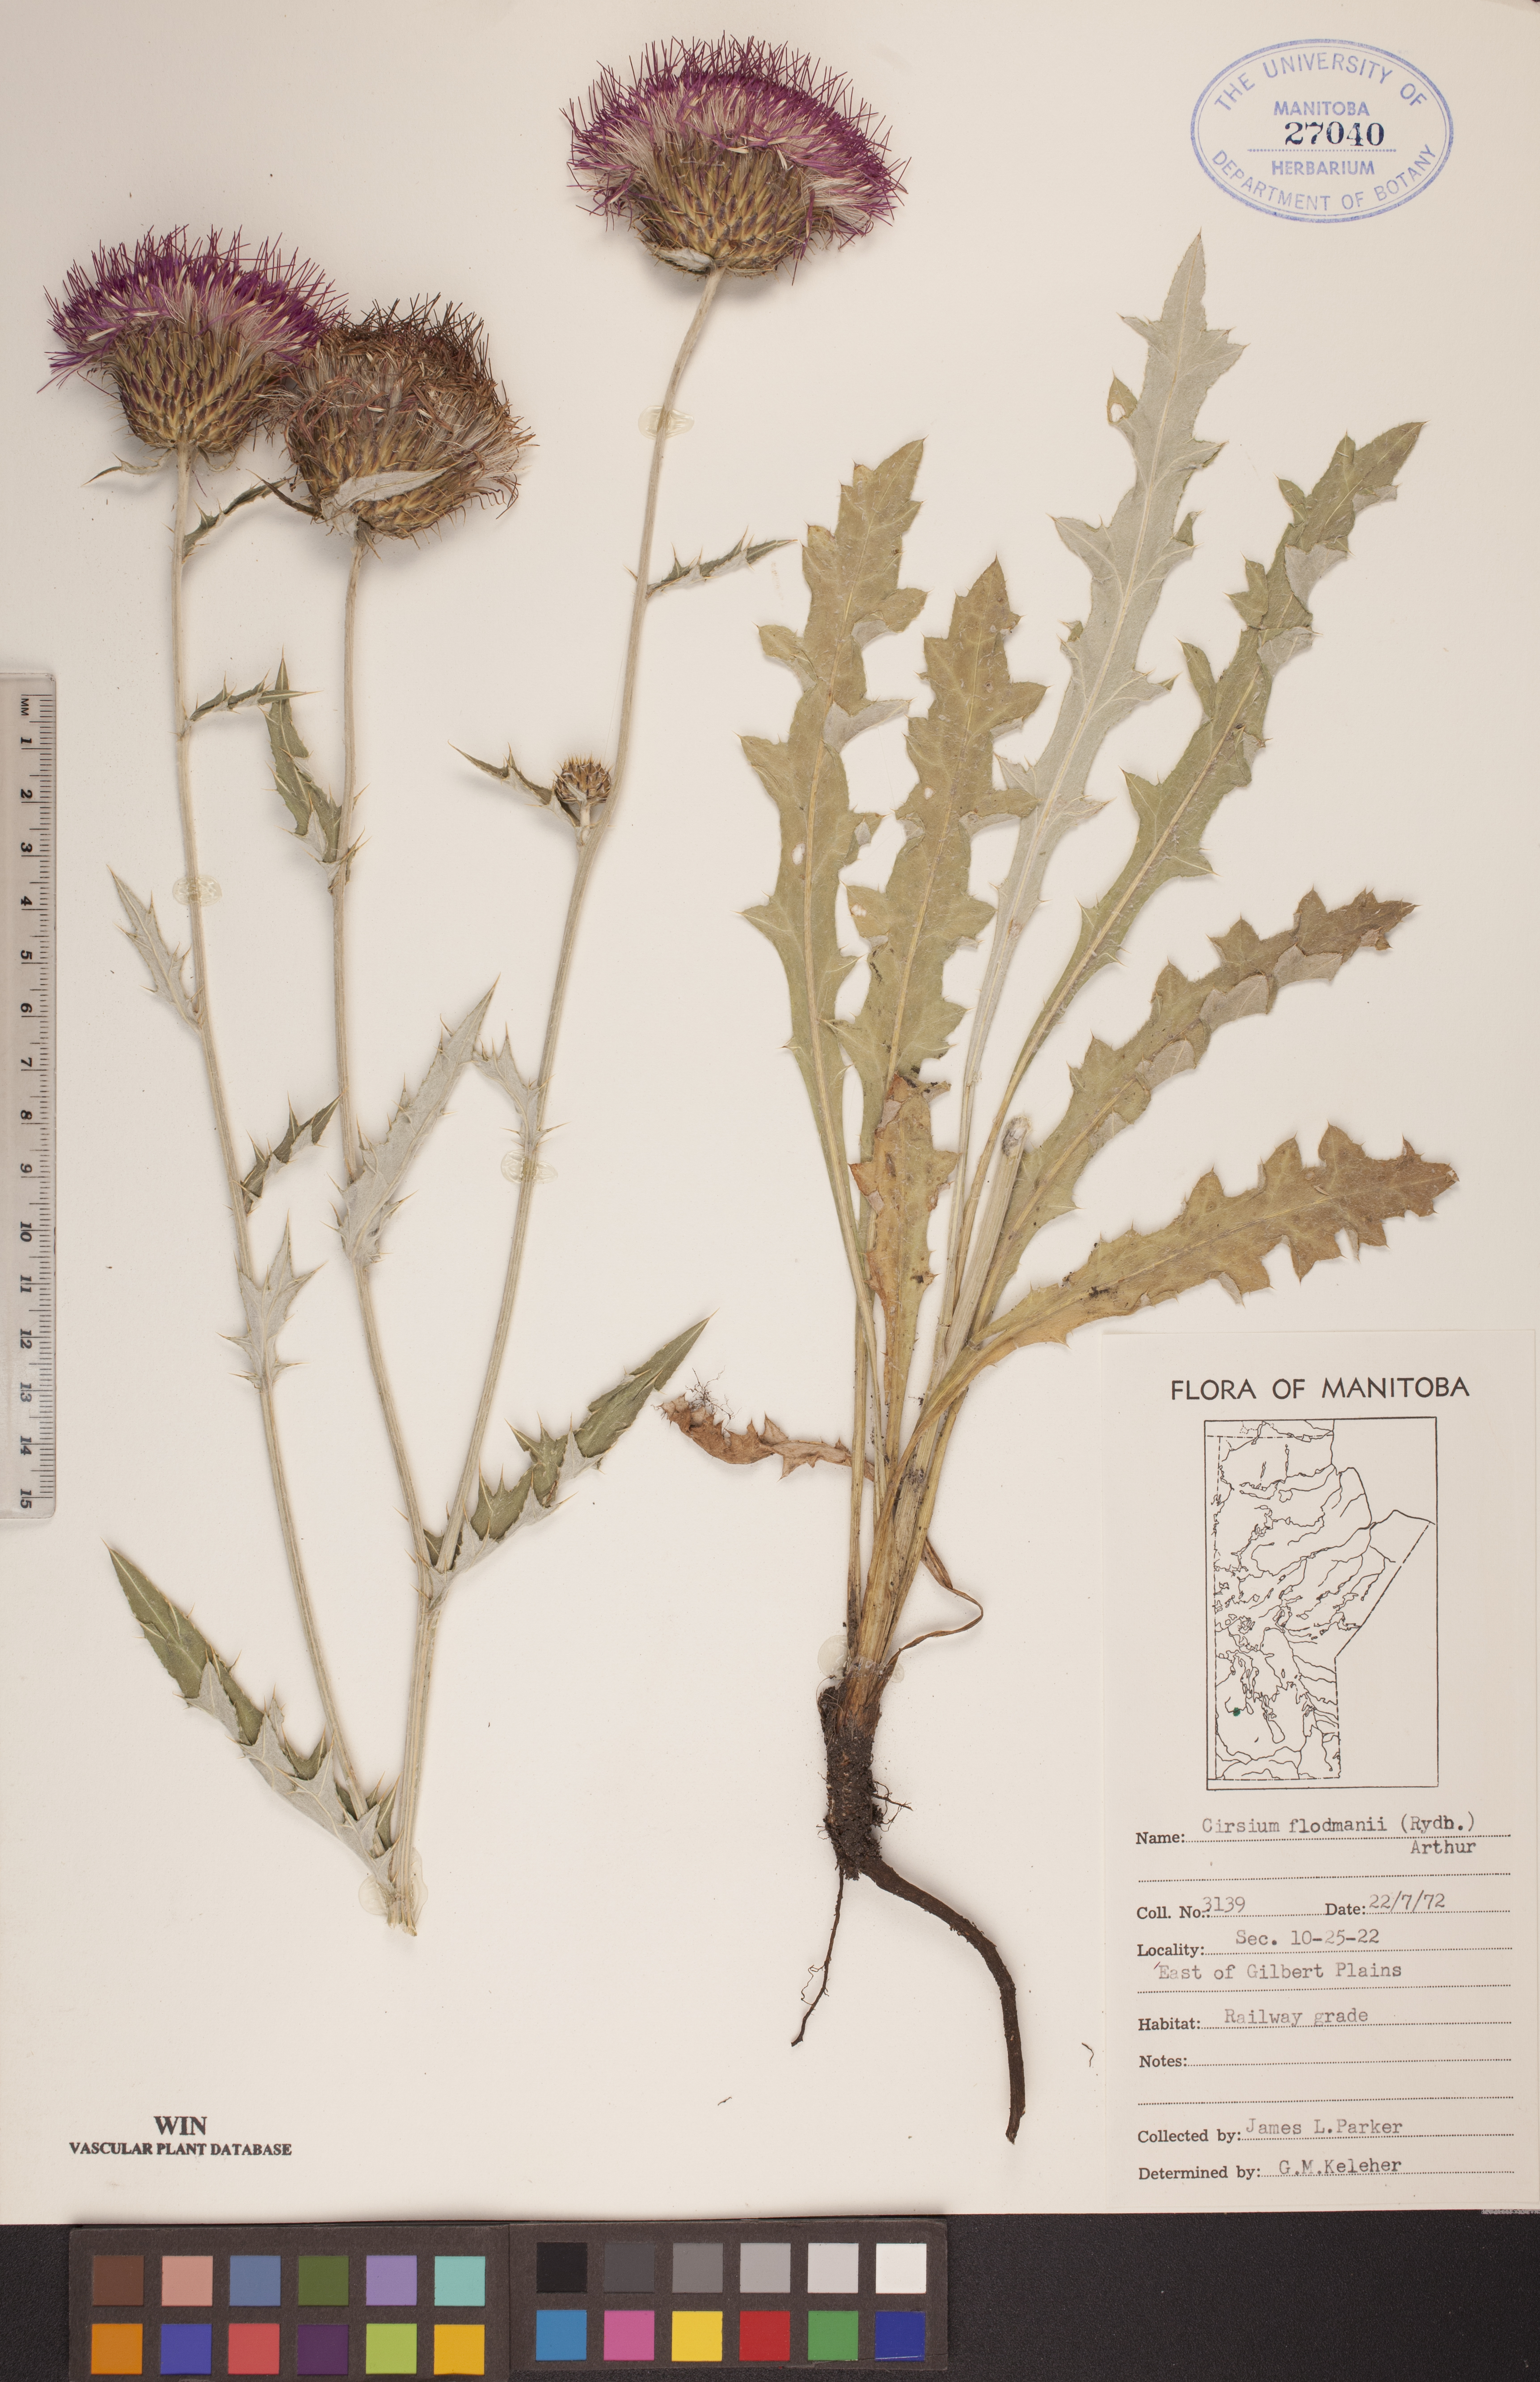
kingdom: Plantae
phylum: Tracheophyta
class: Magnoliopsida
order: Asterales
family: Asteraceae
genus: Cirsium
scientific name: Cirsium flodmanii
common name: Flodman's thistle
